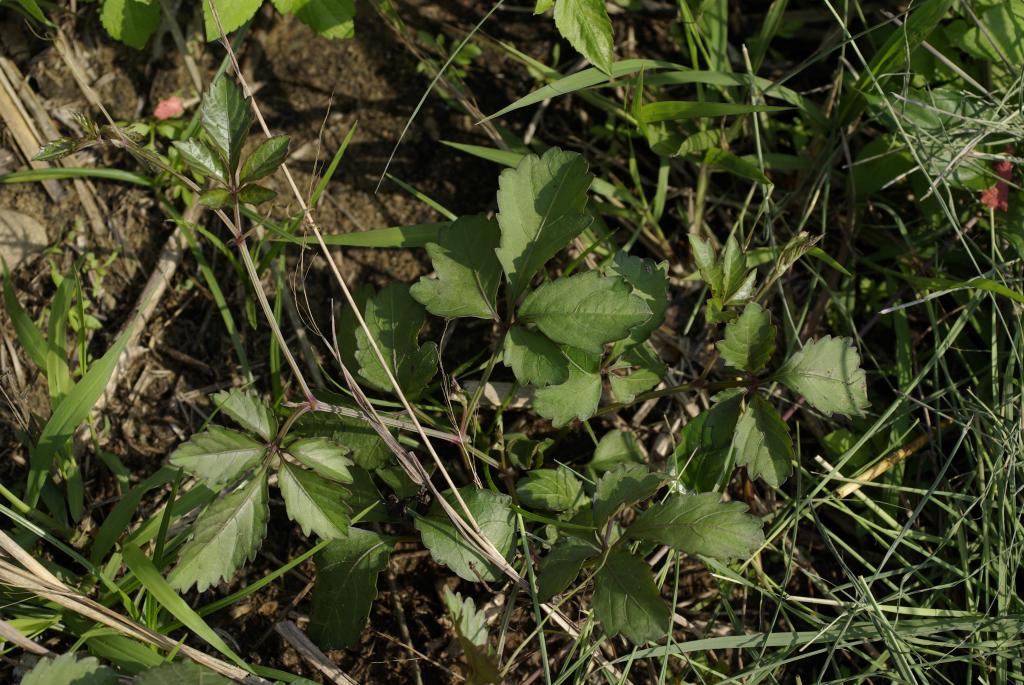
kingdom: Plantae
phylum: Tracheophyta
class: Magnoliopsida
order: Vitales
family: Vitaceae
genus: Causonis
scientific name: Causonis japonica
